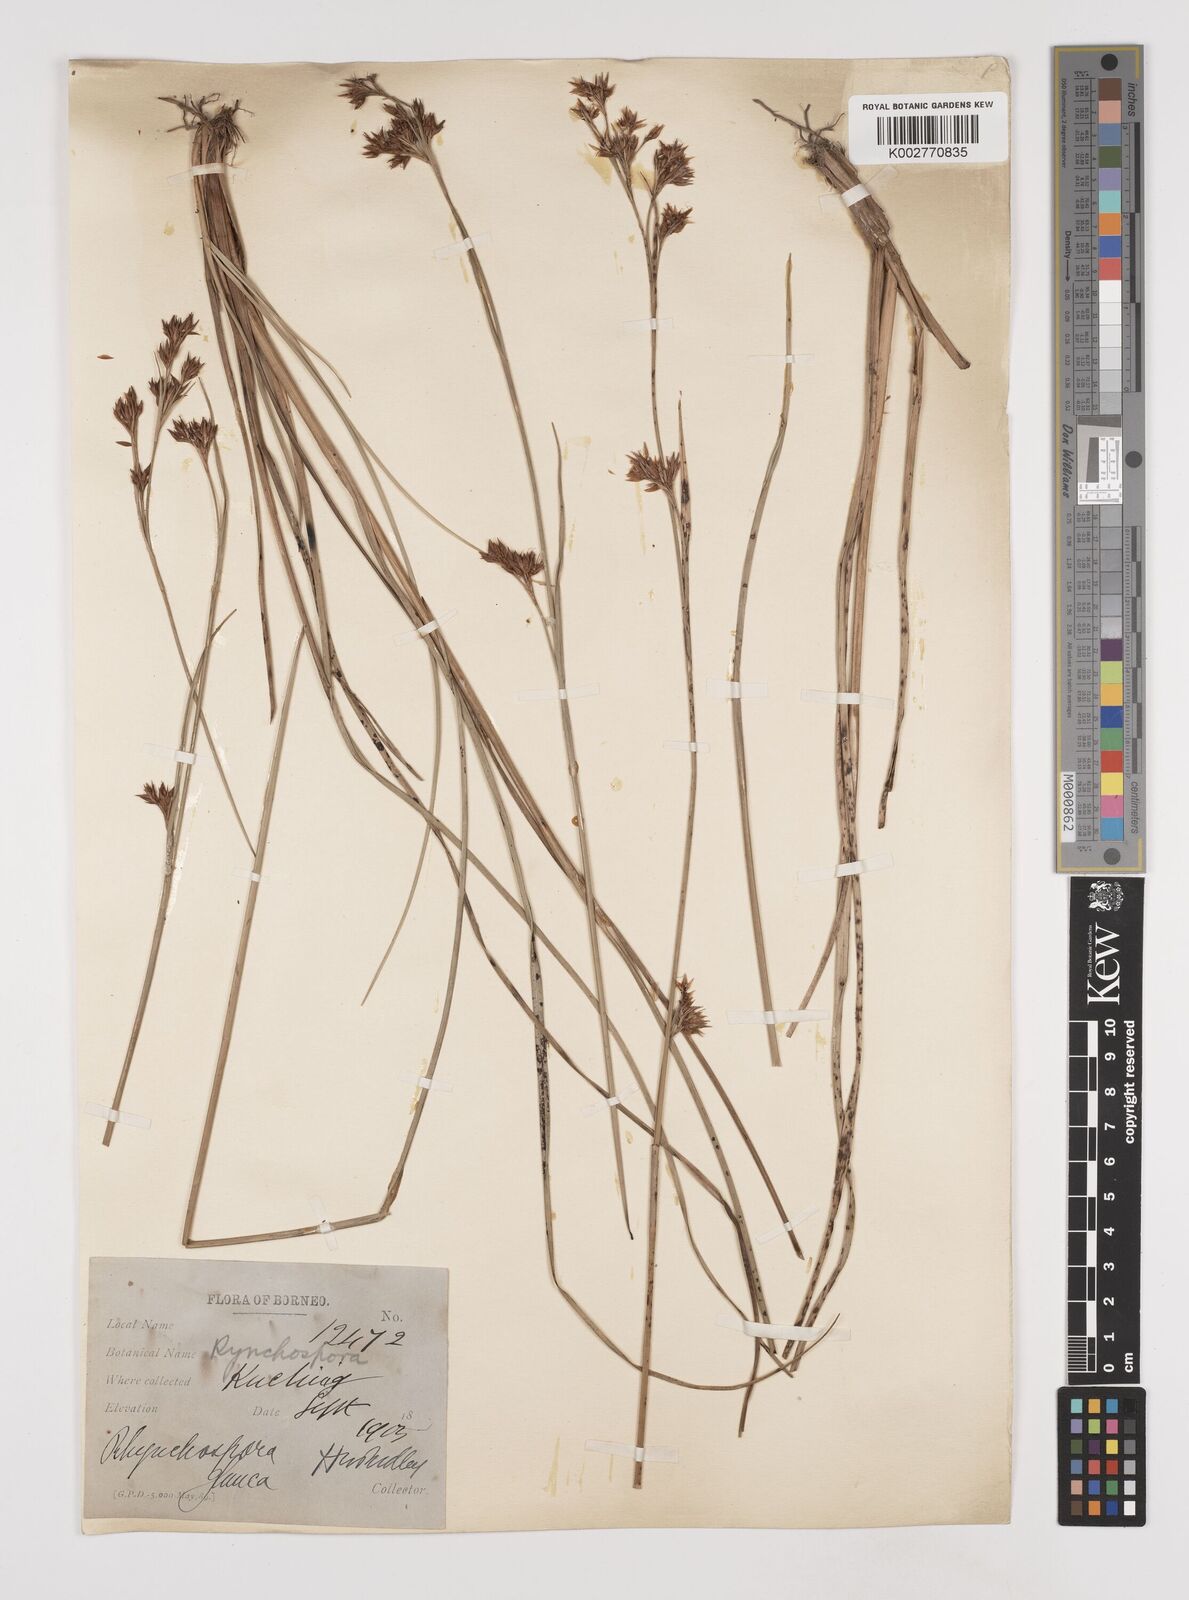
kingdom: Plantae
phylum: Tracheophyta
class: Liliopsida
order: Poales
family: Cyperaceae
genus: Rhynchospora
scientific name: Rhynchospora rugosa
